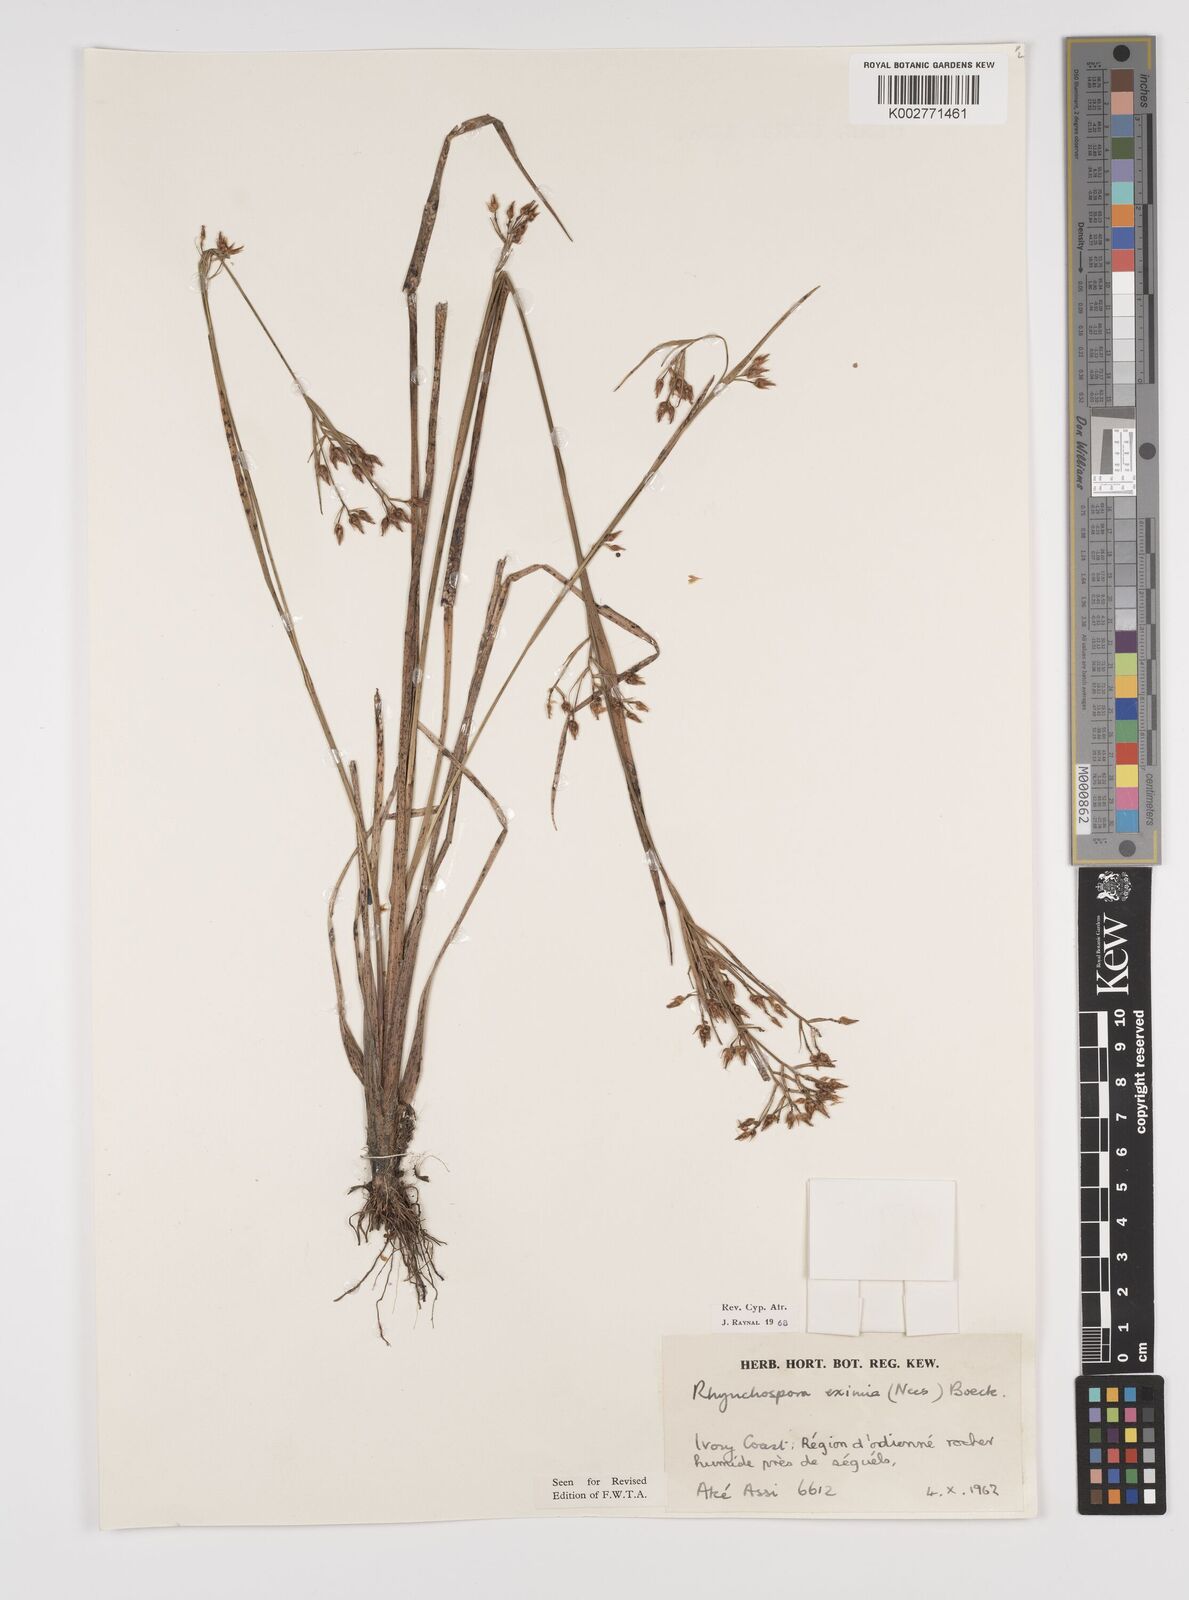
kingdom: Plantae
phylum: Tracheophyta
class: Liliopsida
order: Poales
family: Cyperaceae
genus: Rhynchospora
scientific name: Rhynchospora eximia
